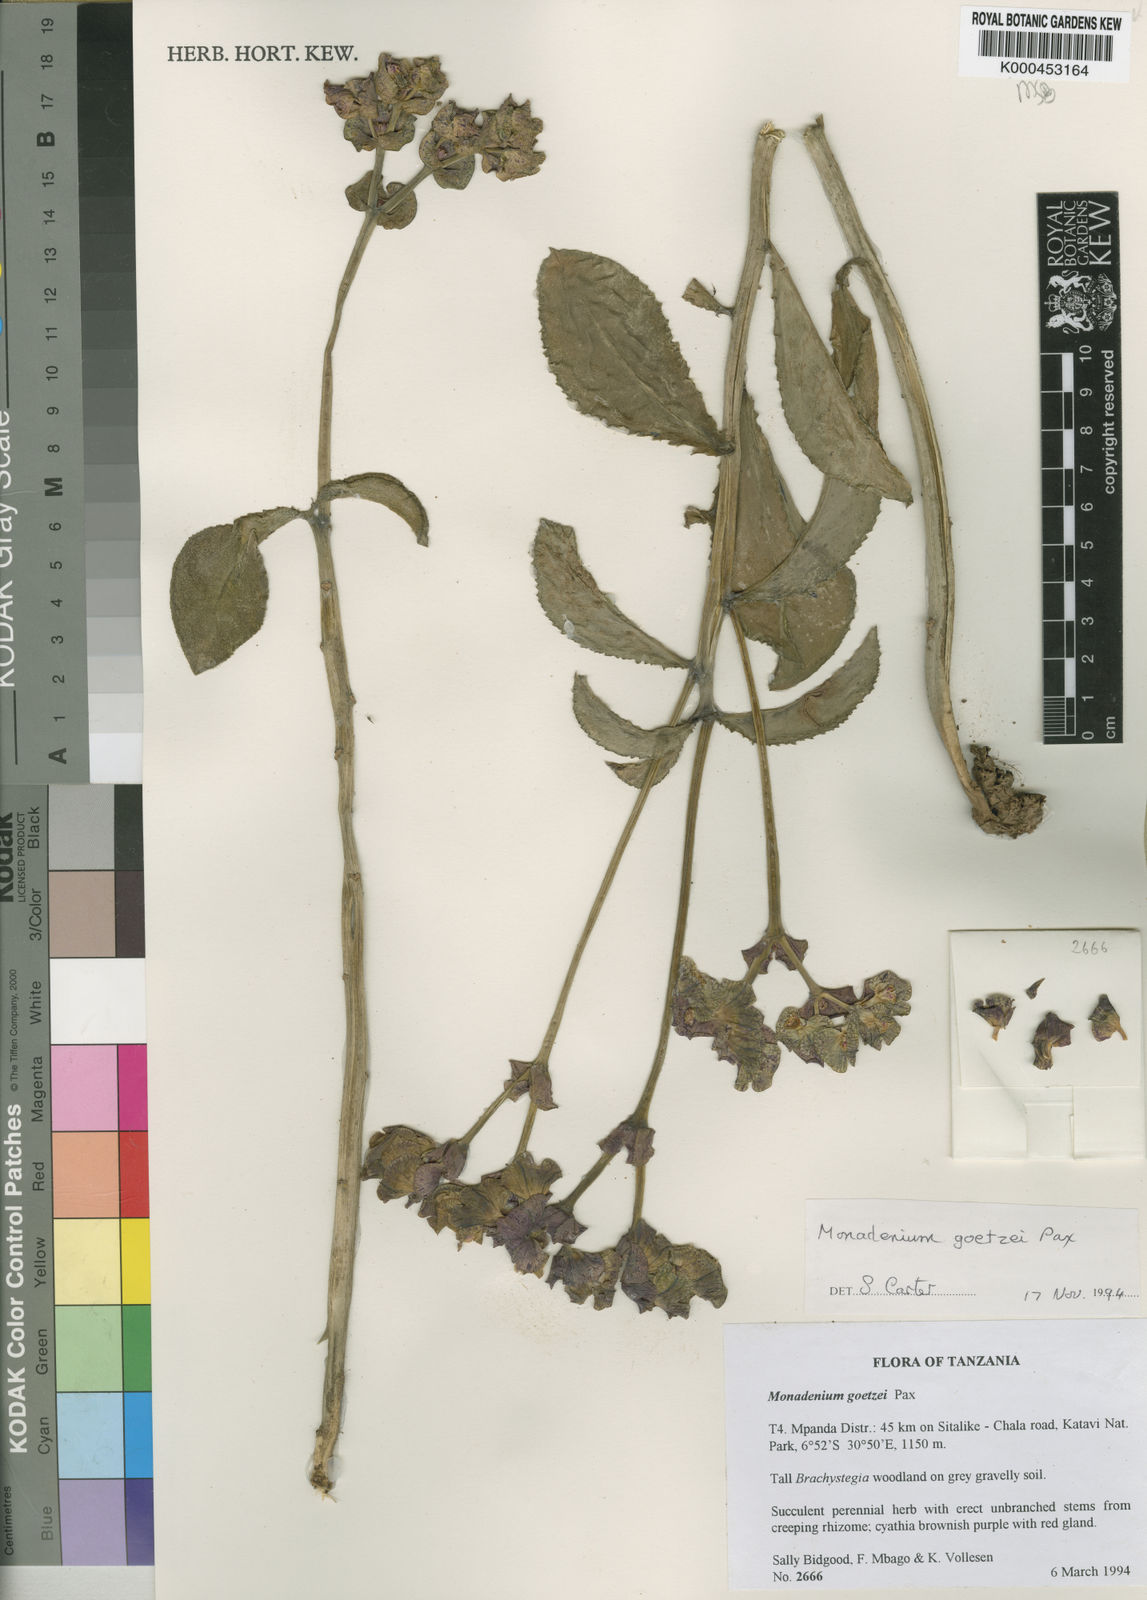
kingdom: Plantae
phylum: Tracheophyta
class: Magnoliopsida
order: Malpighiales
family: Euphorbiaceae
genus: Euphorbia
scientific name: Euphorbia neogoetzei
